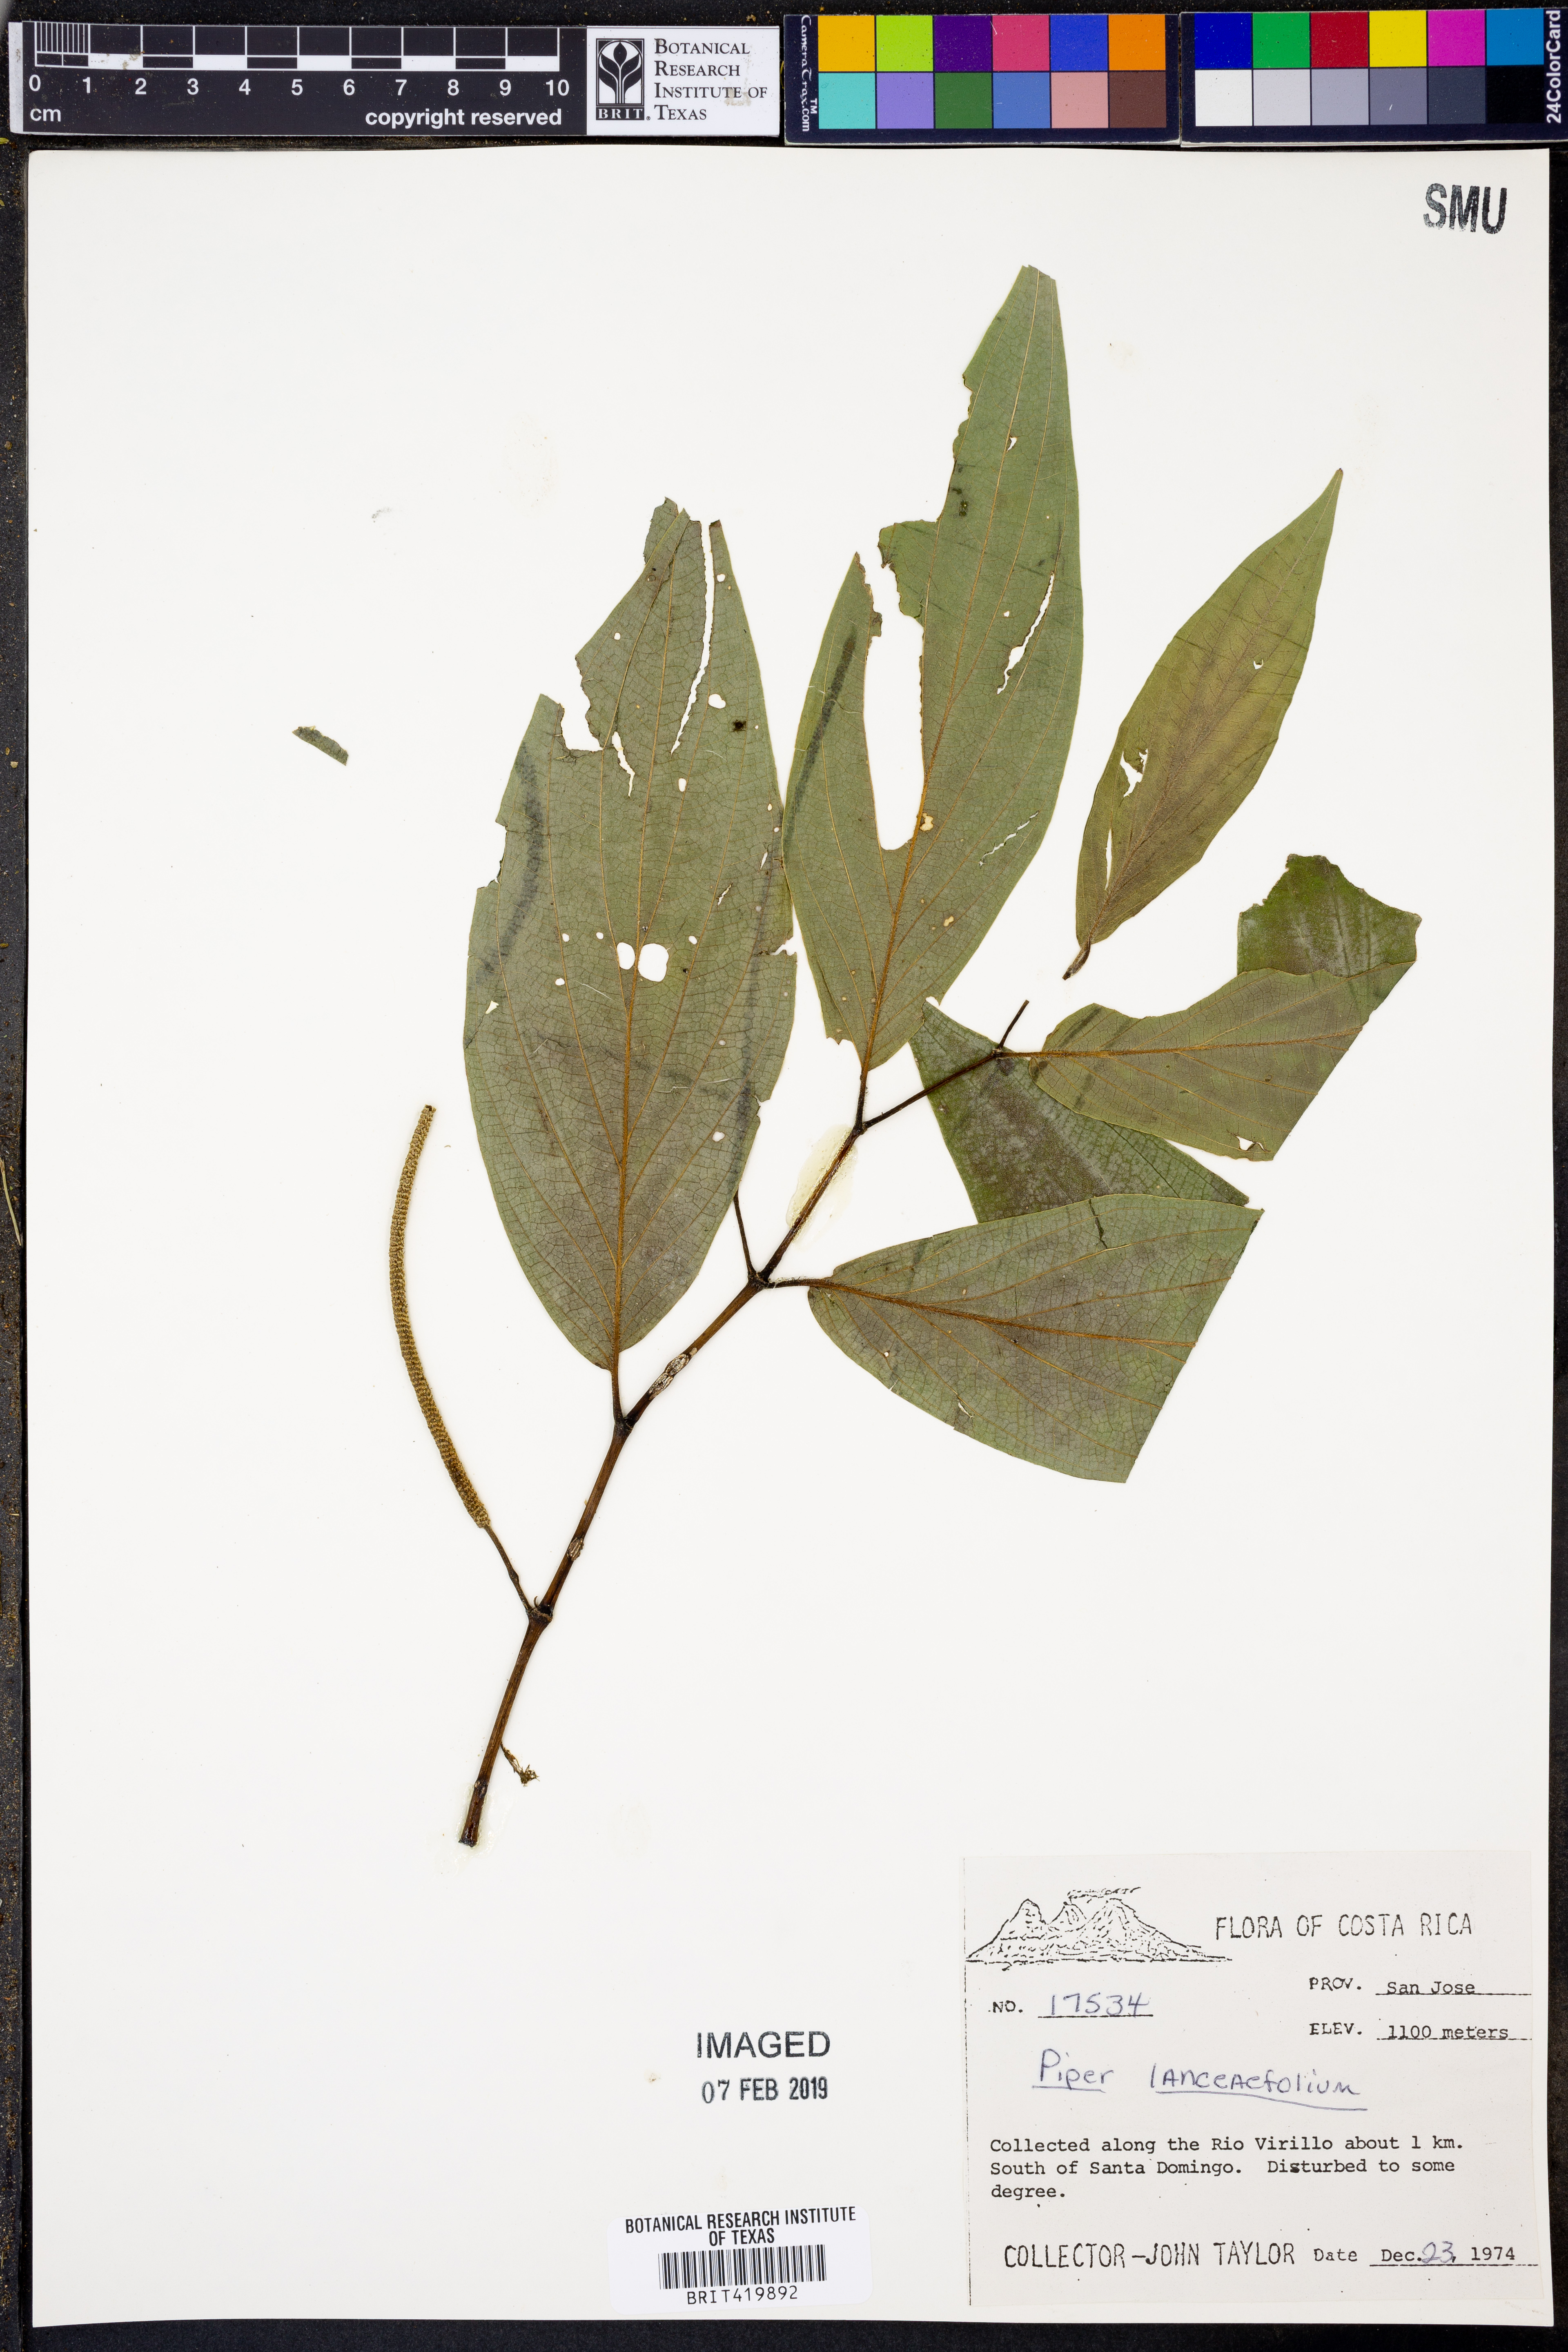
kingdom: Plantae
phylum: Tracheophyta
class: Magnoliopsida
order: Piperales
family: Piperaceae
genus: Piper
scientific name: Piper lanceifolium
